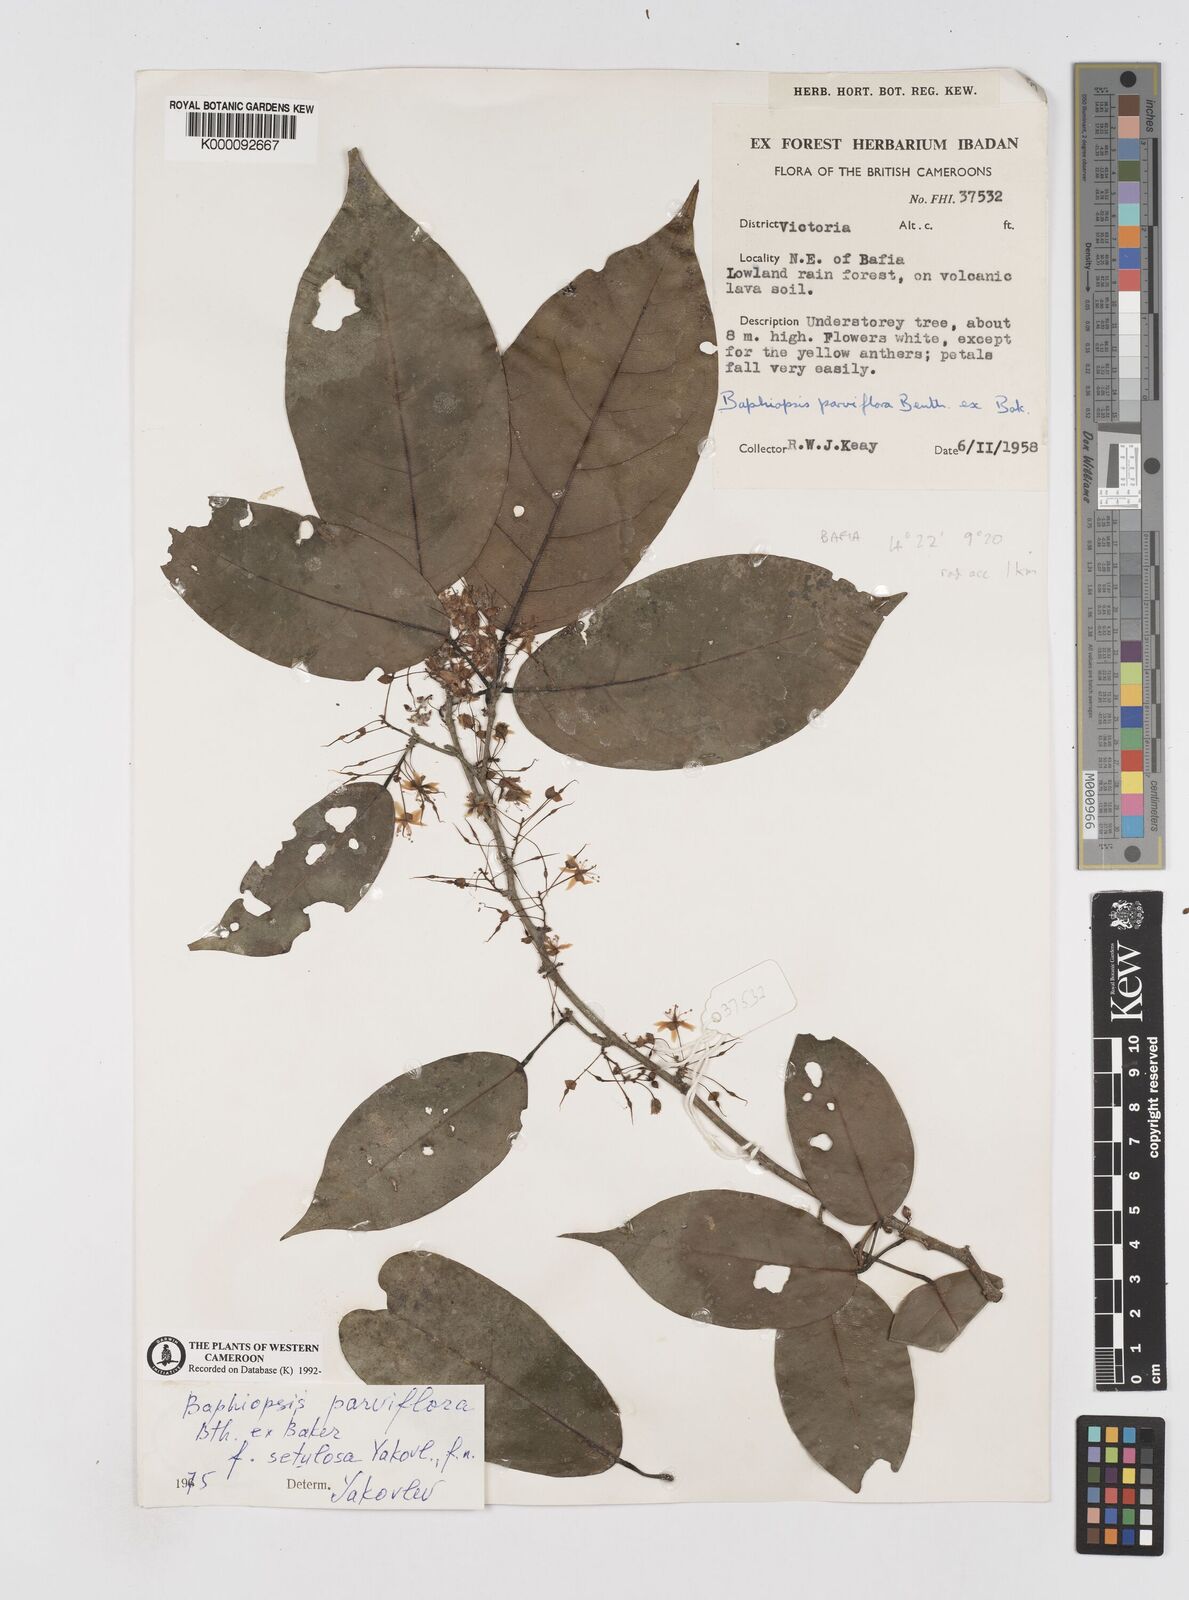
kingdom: Plantae
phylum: Tracheophyta
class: Magnoliopsida
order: Fabales
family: Fabaceae
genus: Baphiopsis
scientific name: Baphiopsis parviflora
